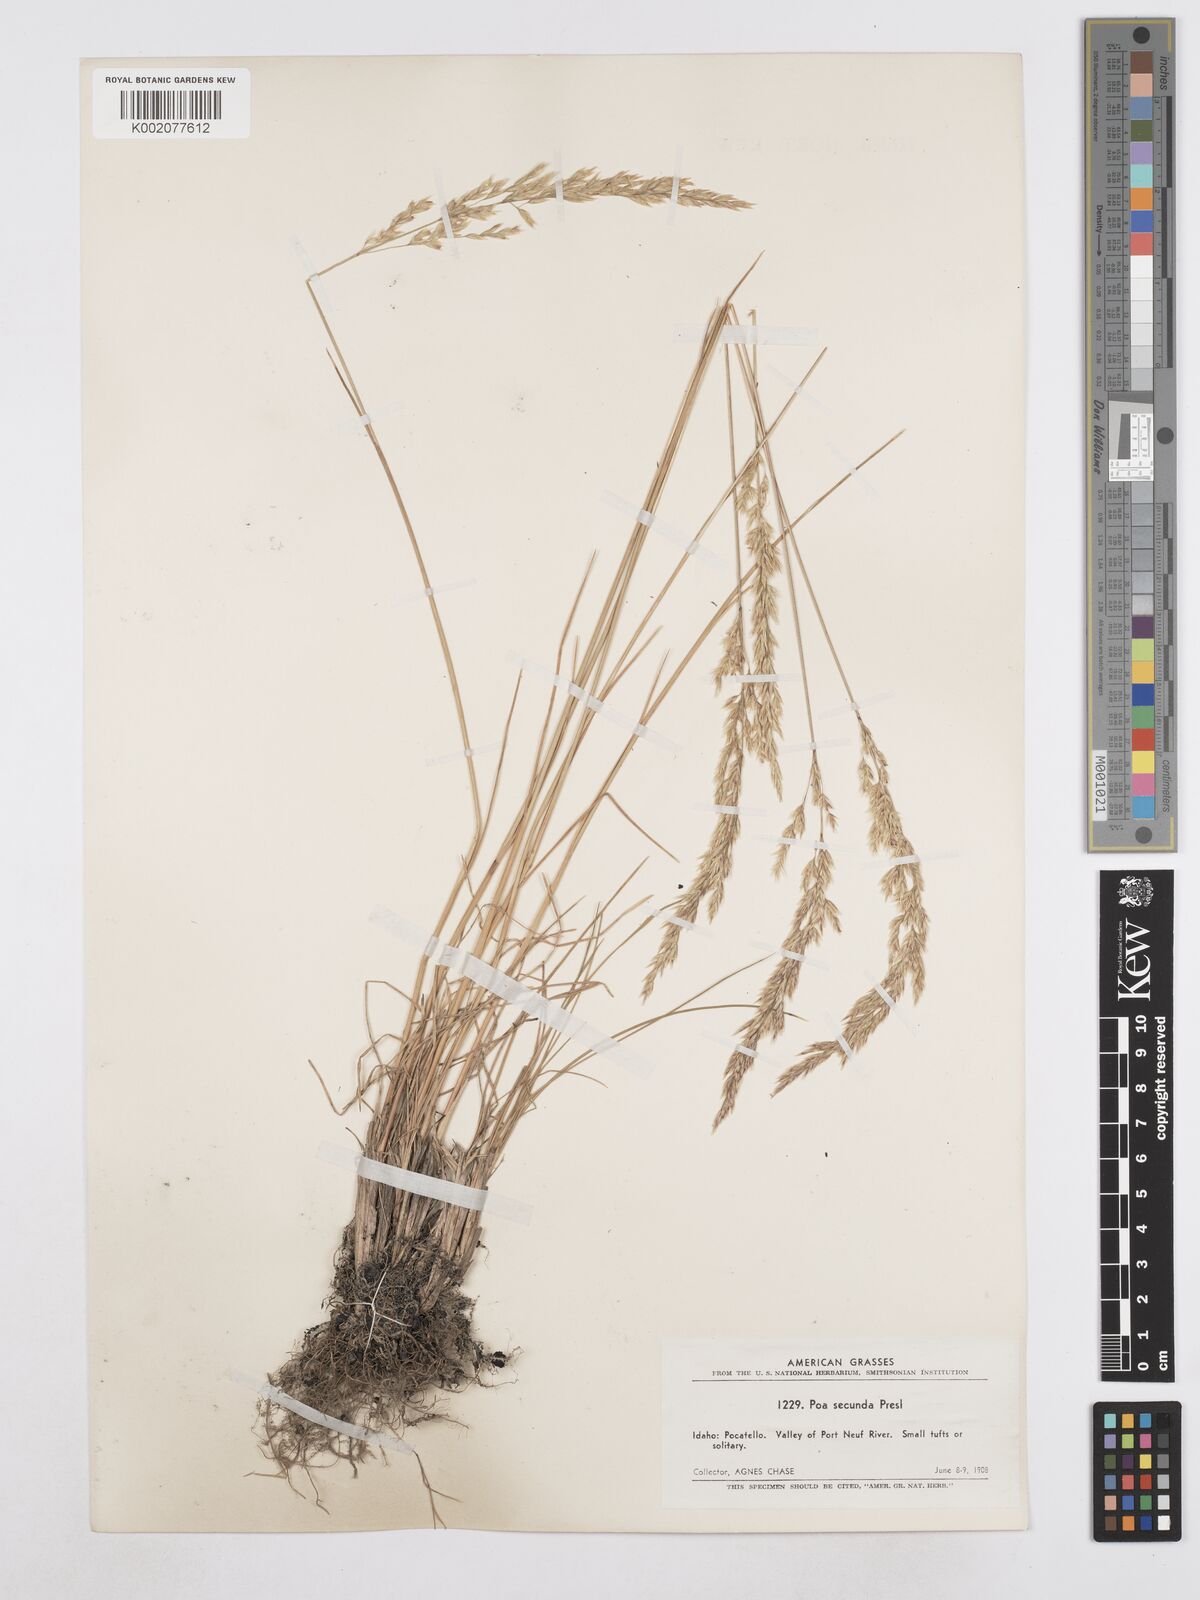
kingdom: Plantae
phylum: Tracheophyta
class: Liliopsida
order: Poales
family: Poaceae
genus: Poa
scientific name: Poa secunda
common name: Sandberg bluegrass
